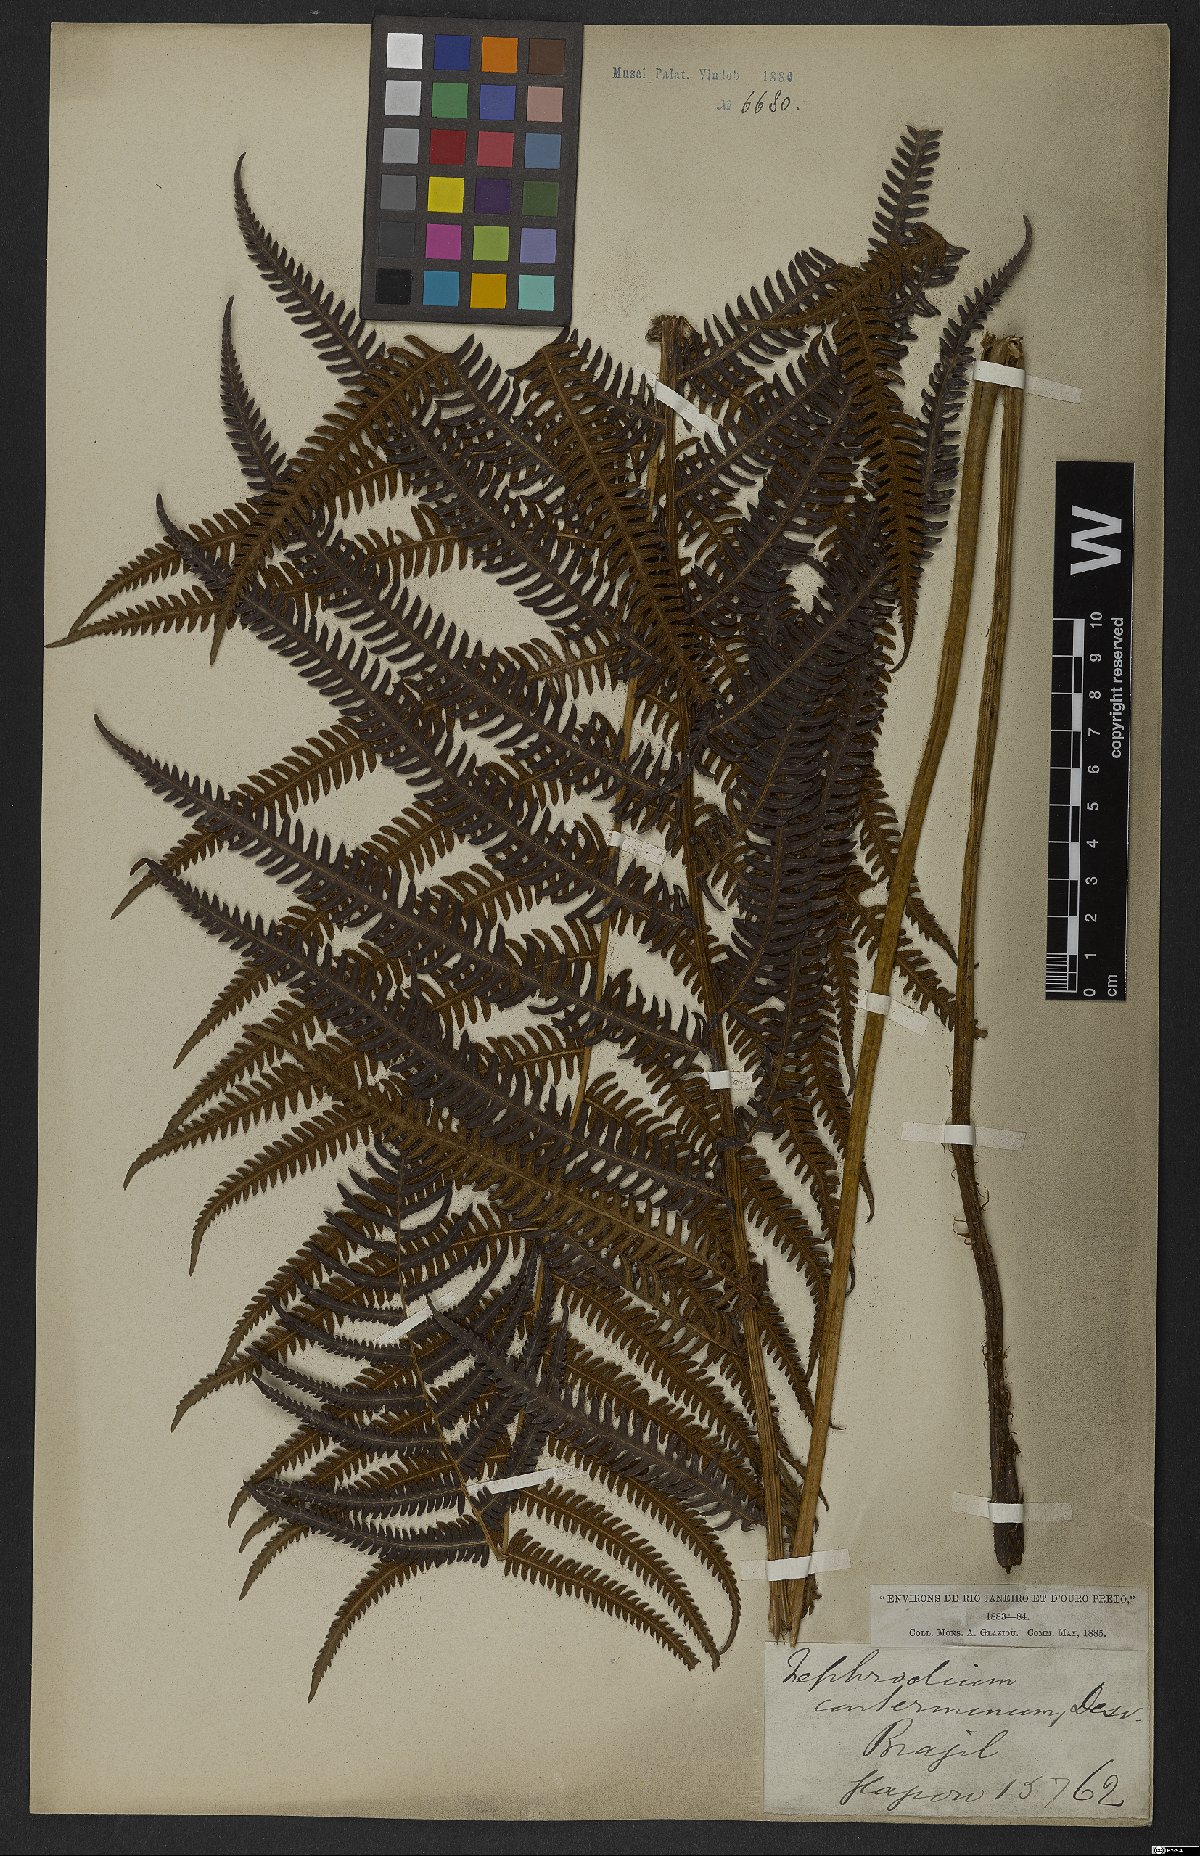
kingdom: Plantae
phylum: Tracheophyta
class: Polypodiopsida
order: Polypodiales
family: Thelypteridaceae
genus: Amauropelta
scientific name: Amauropelta opposita
